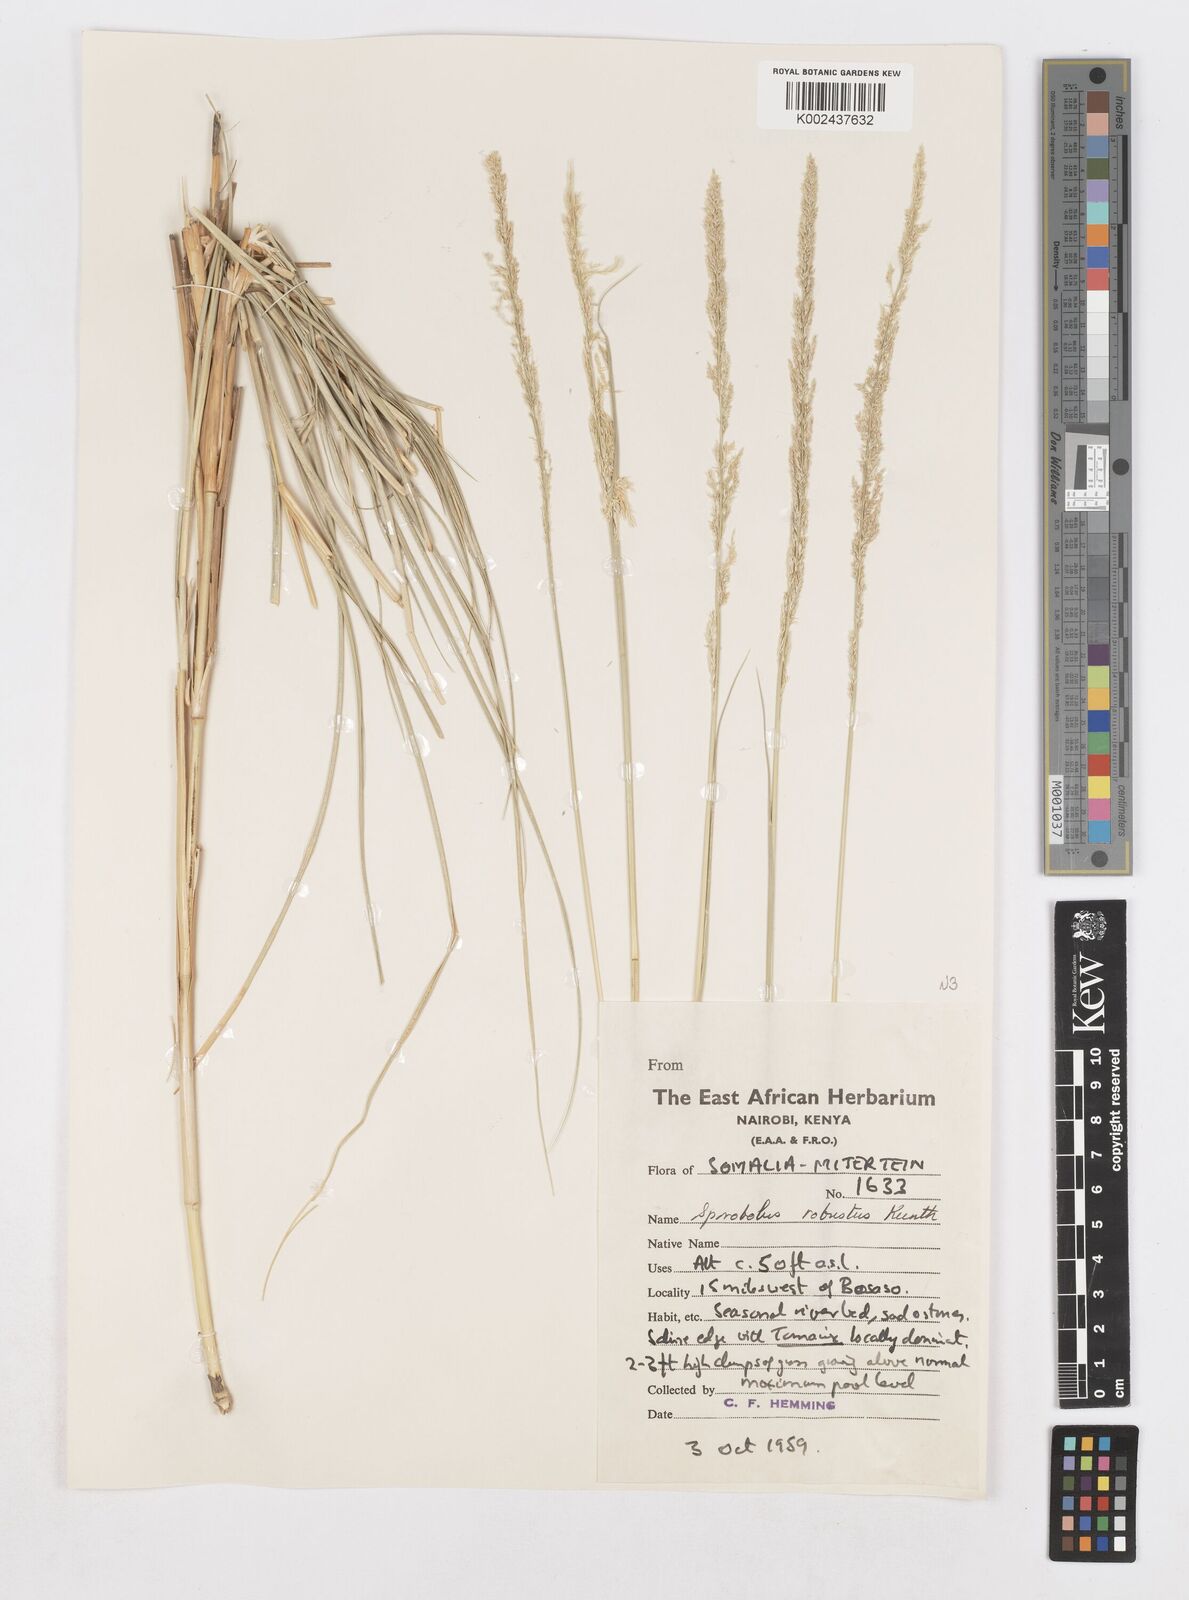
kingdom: Plantae
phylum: Tracheophyta
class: Liliopsida
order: Poales
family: Poaceae
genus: Sporobolus
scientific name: Sporobolus consimilis
